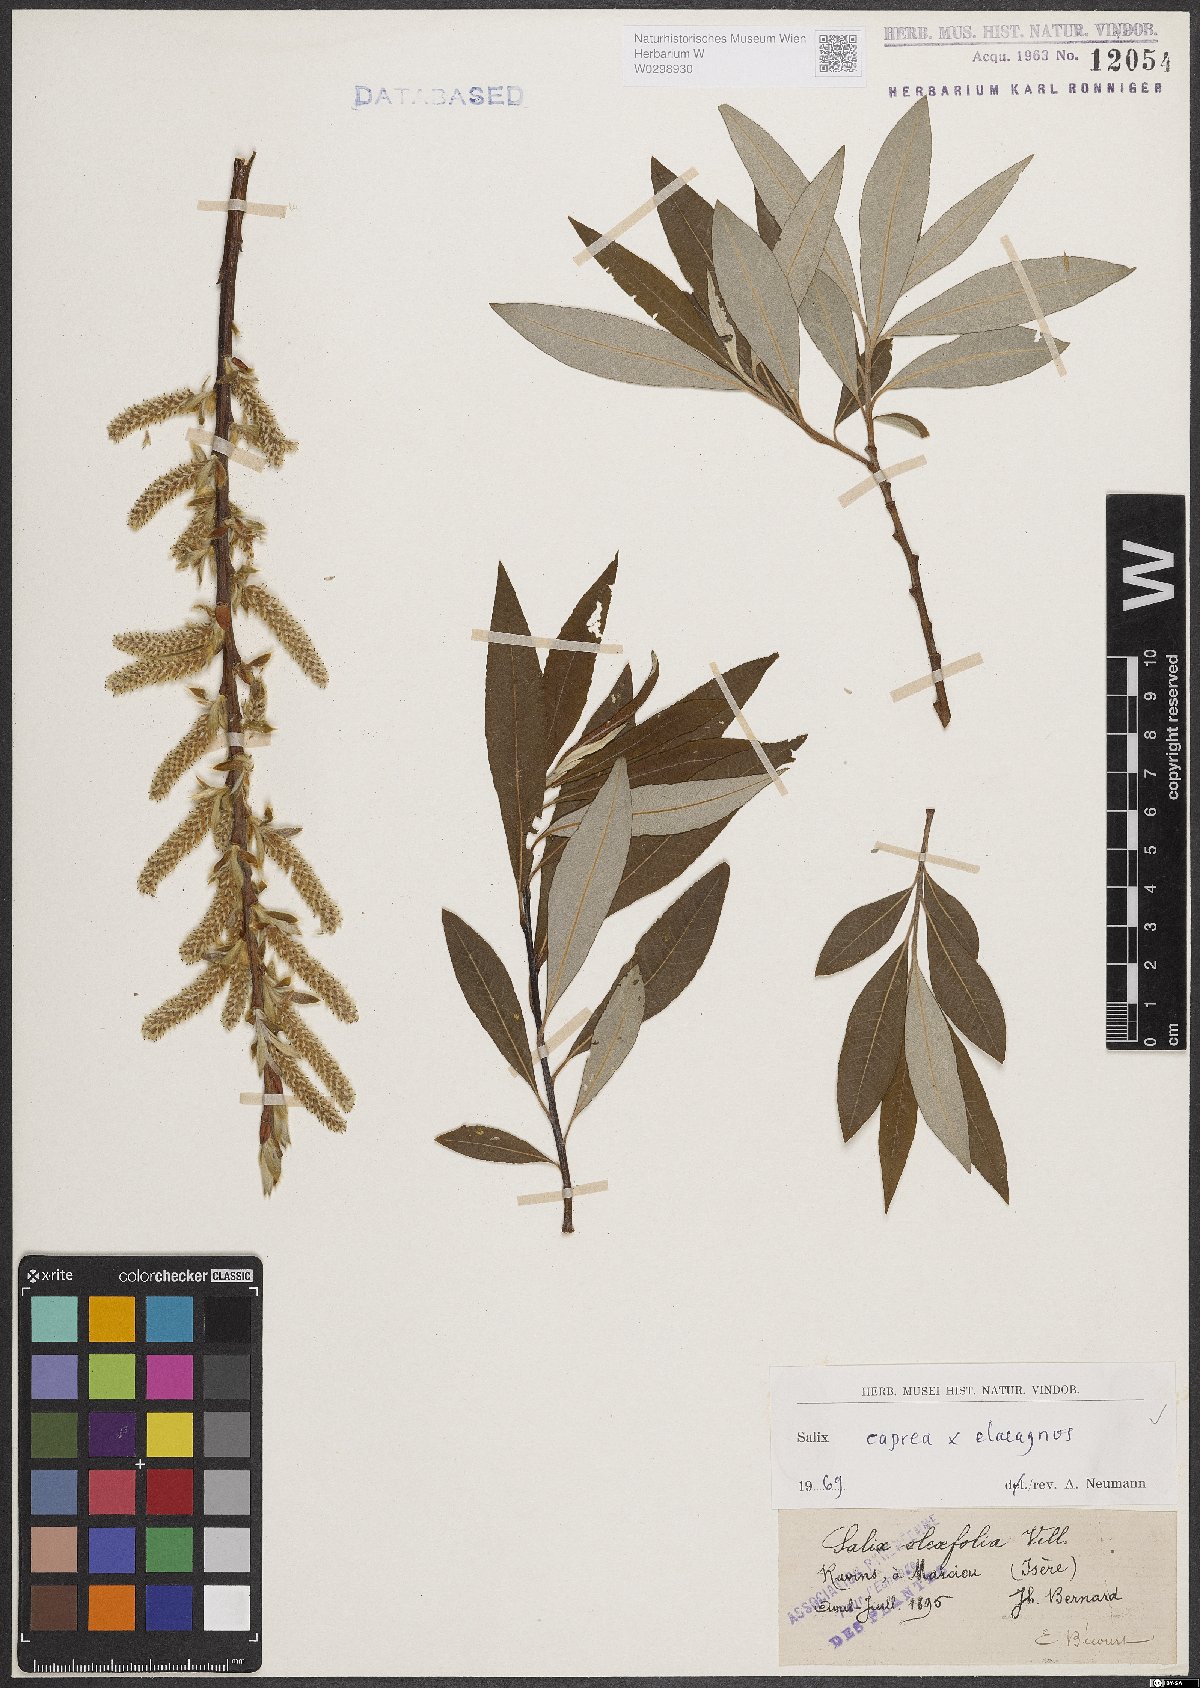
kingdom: Plantae
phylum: Tracheophyta
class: Magnoliopsida
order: Malpighiales
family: Salicaceae
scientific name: Salicaceae
